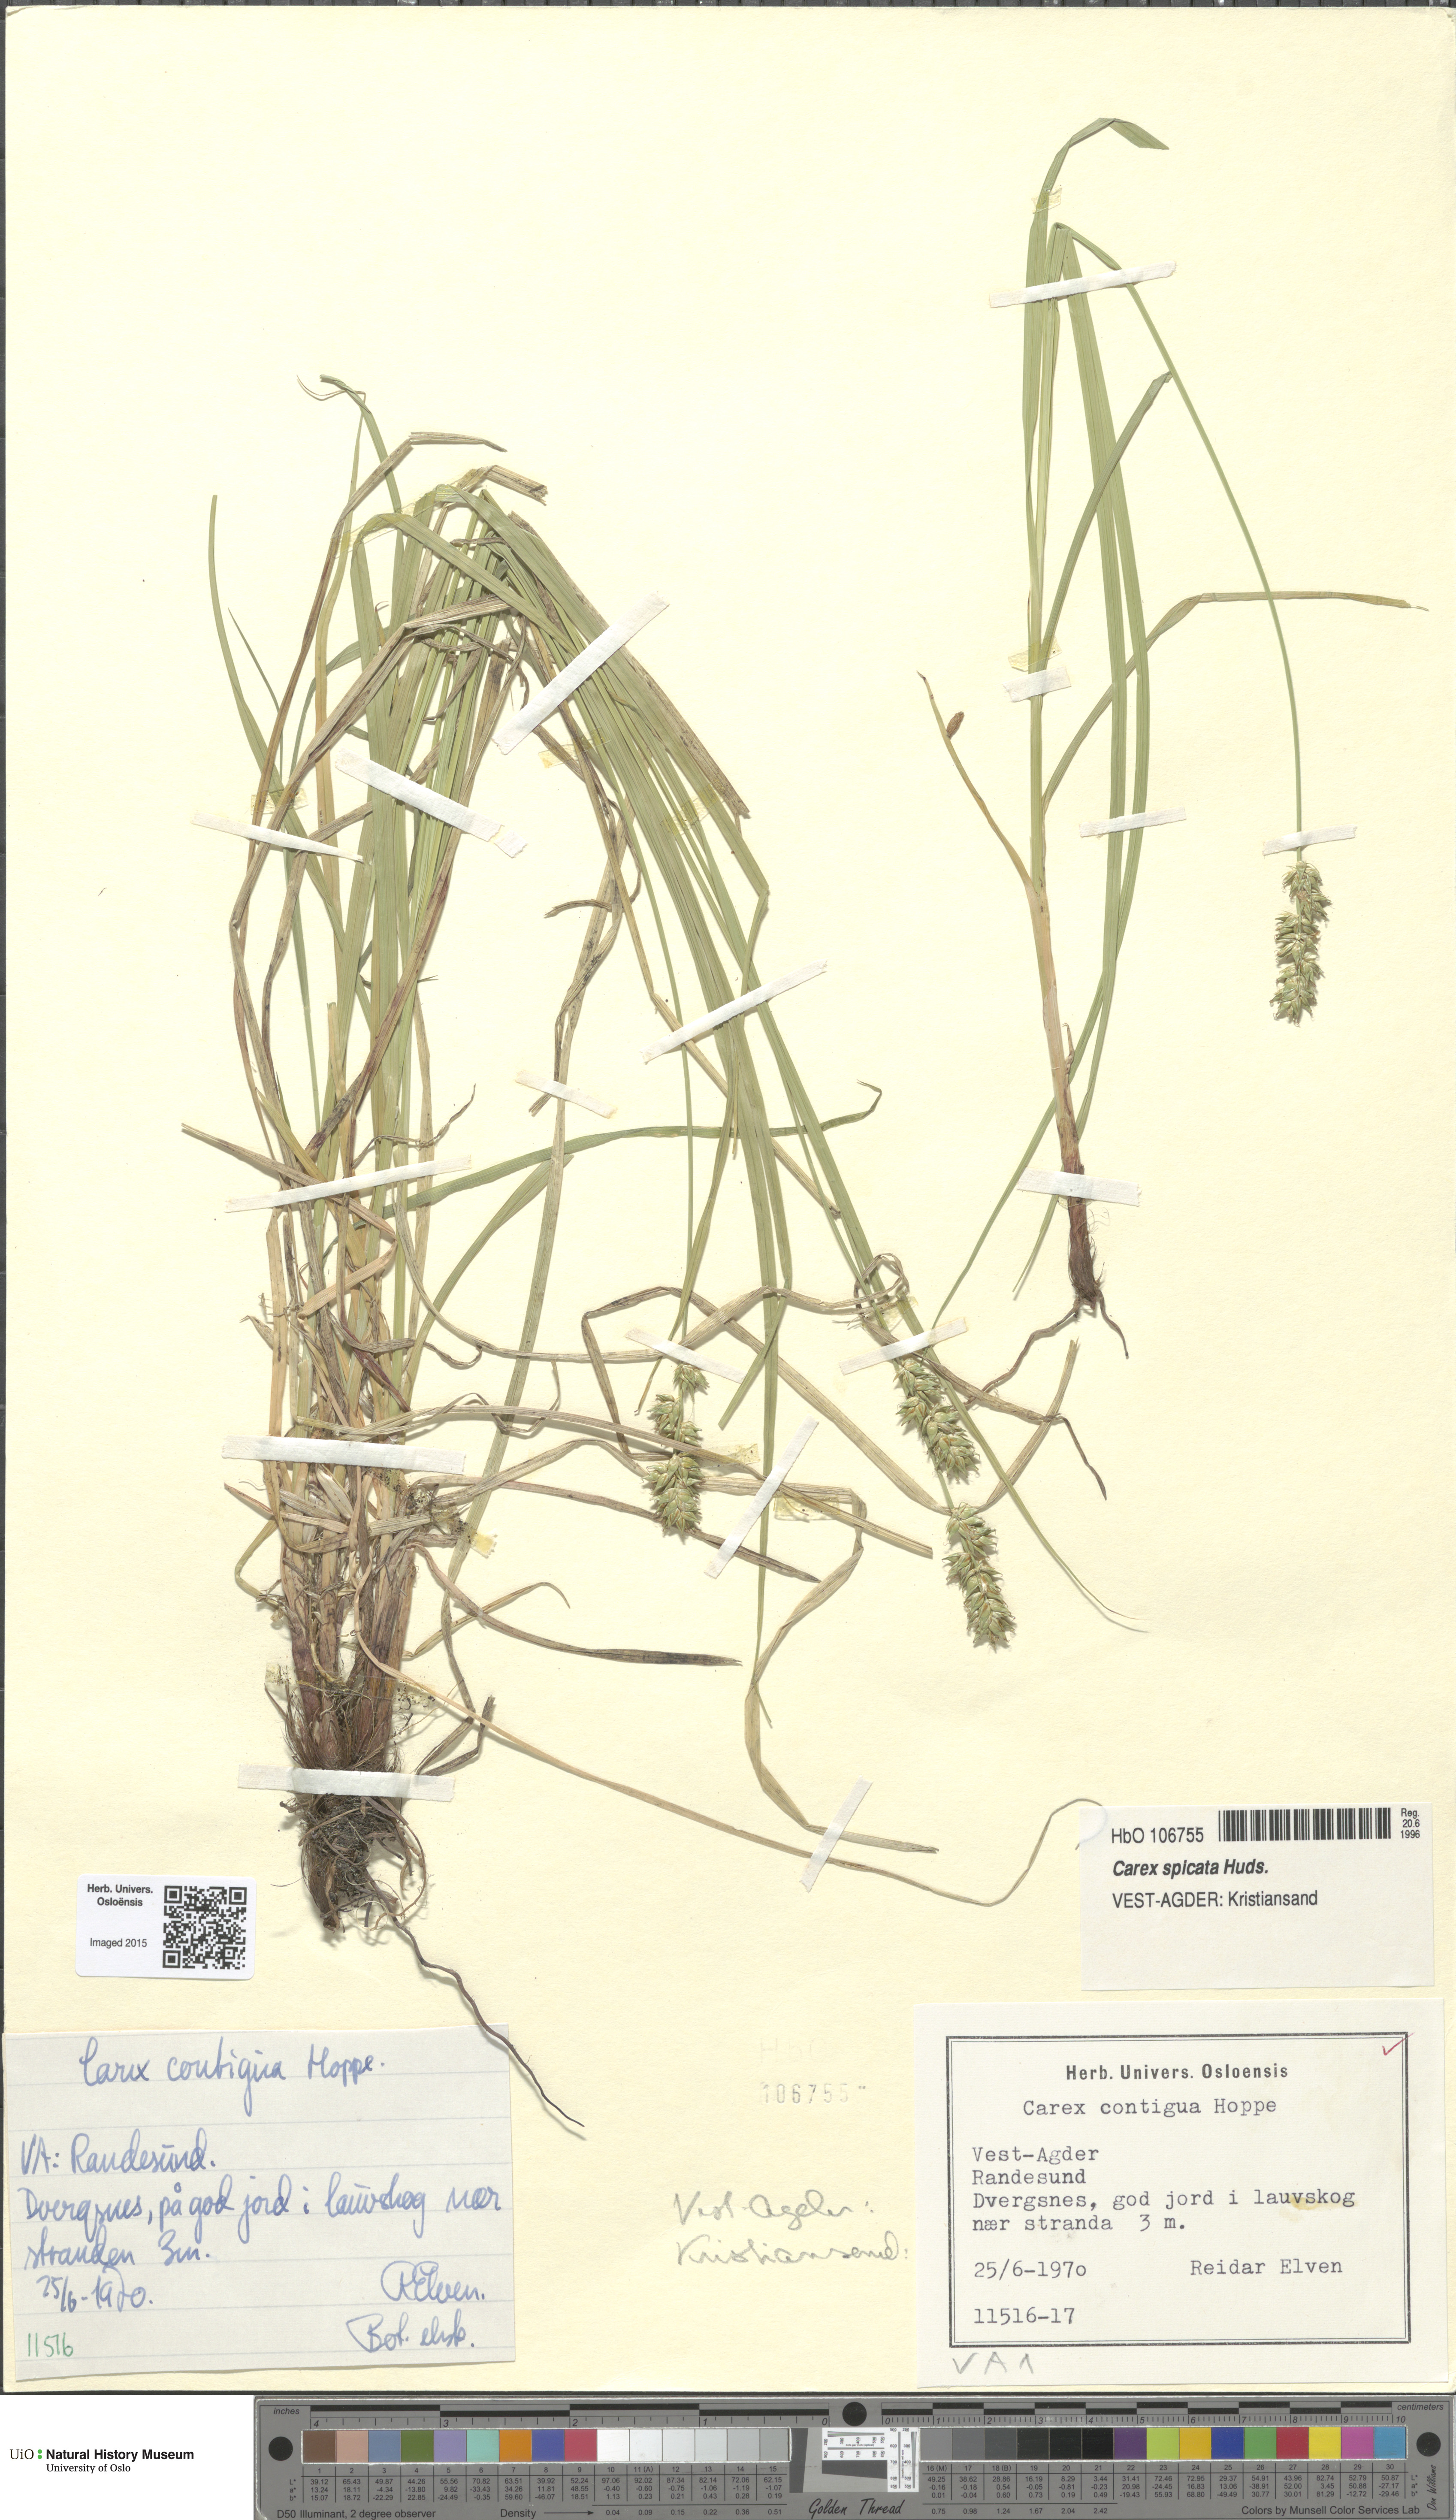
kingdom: Plantae
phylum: Tracheophyta
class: Liliopsida
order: Poales
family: Cyperaceae
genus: Carex
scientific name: Carex spicata
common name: Spiked sedge
